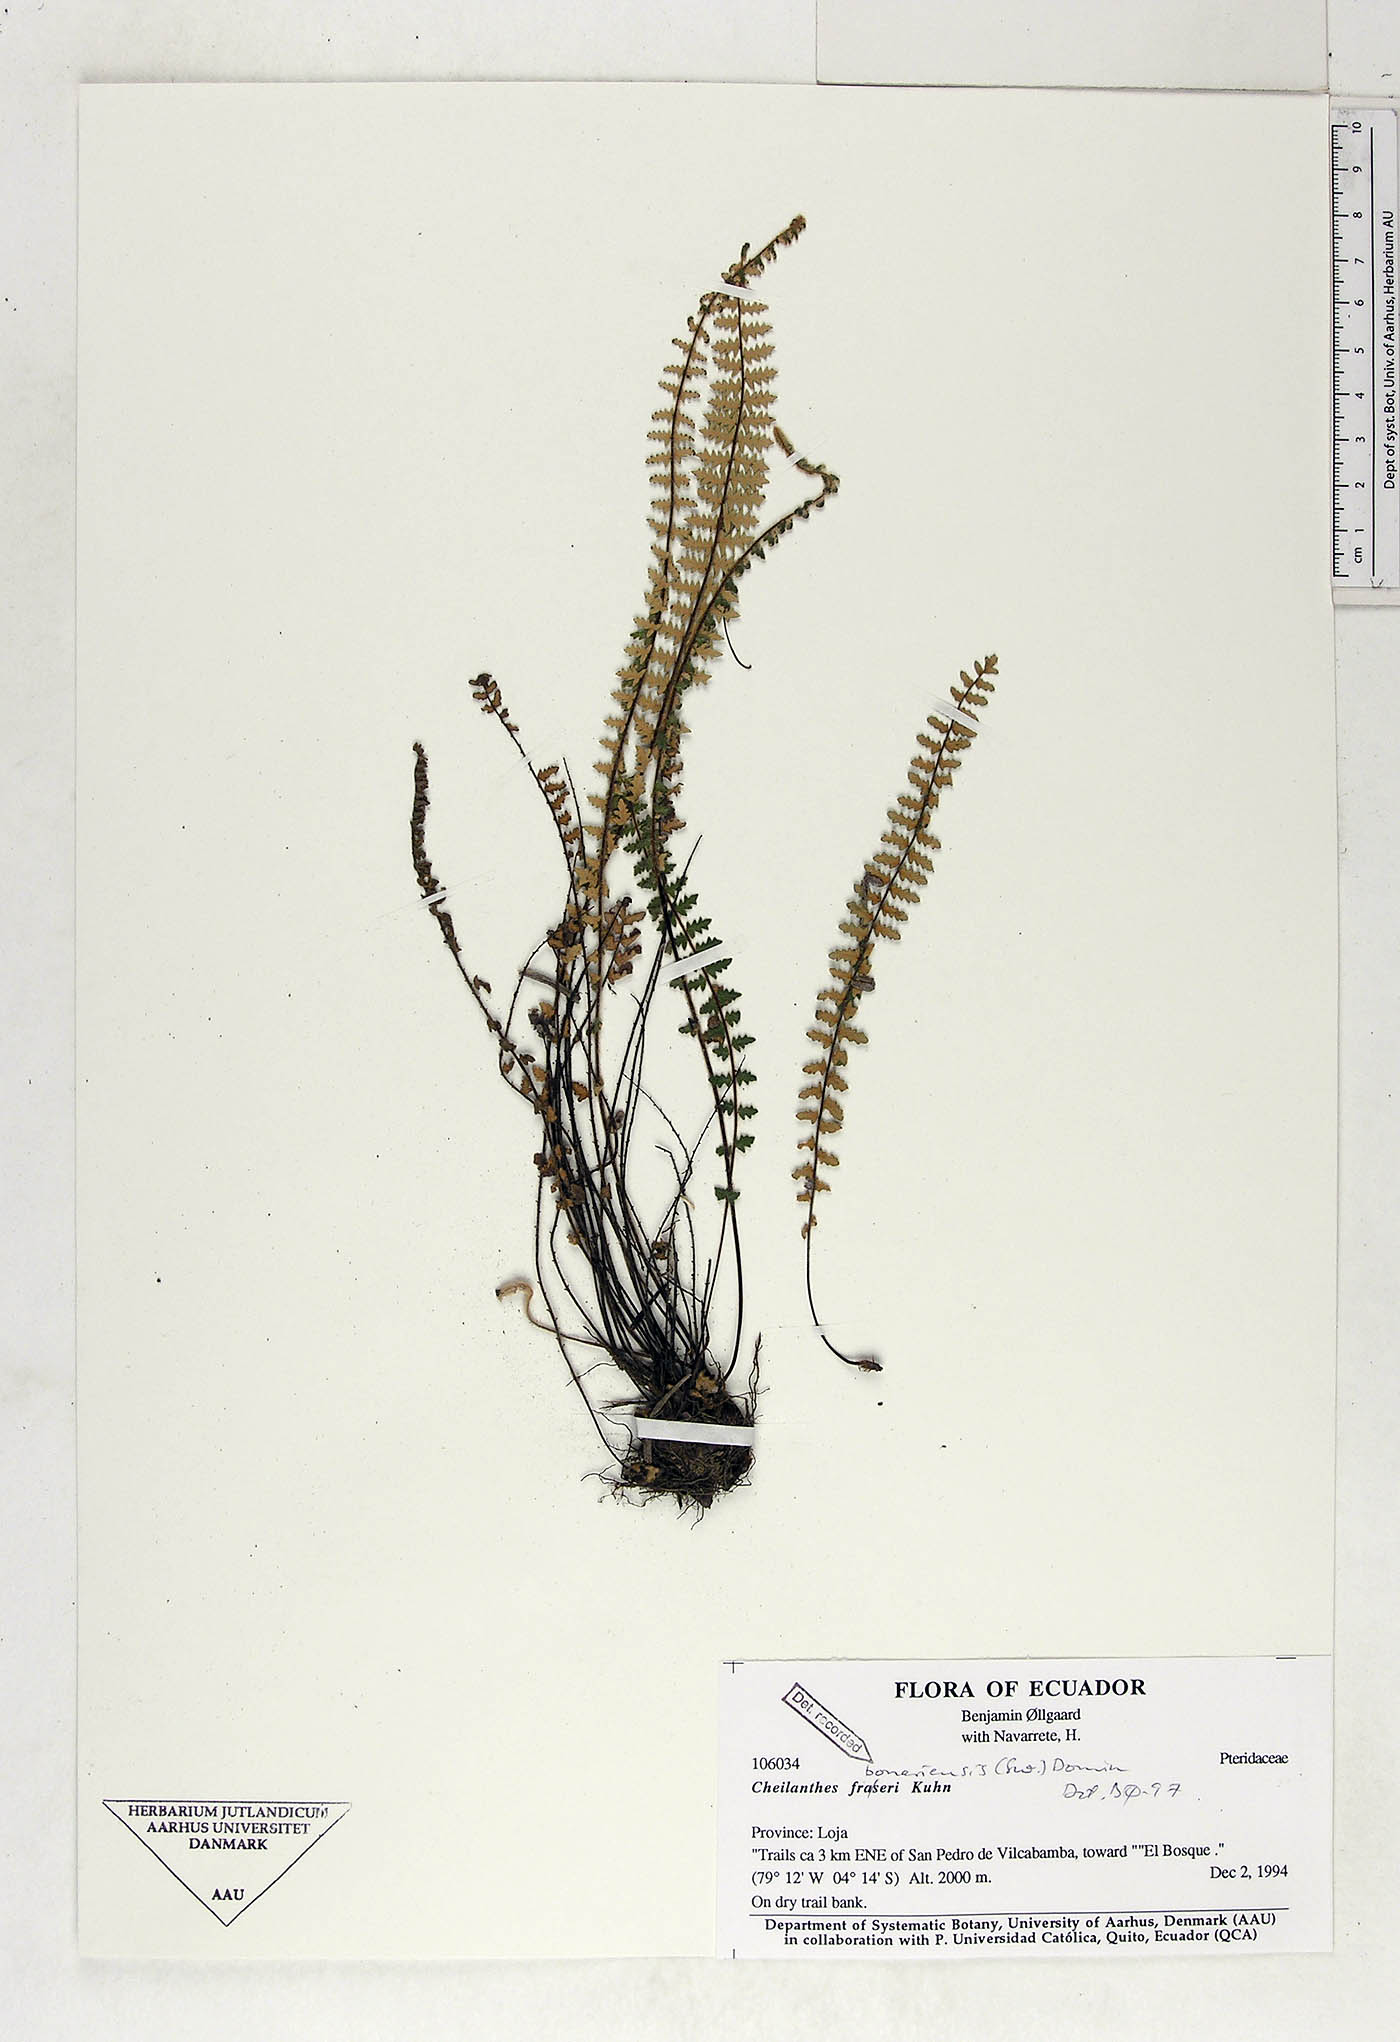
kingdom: Plantae
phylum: Tracheophyta
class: Polypodiopsida
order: Polypodiales
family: Pteridaceae
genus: Myriopteris
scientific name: Myriopteris aurea
